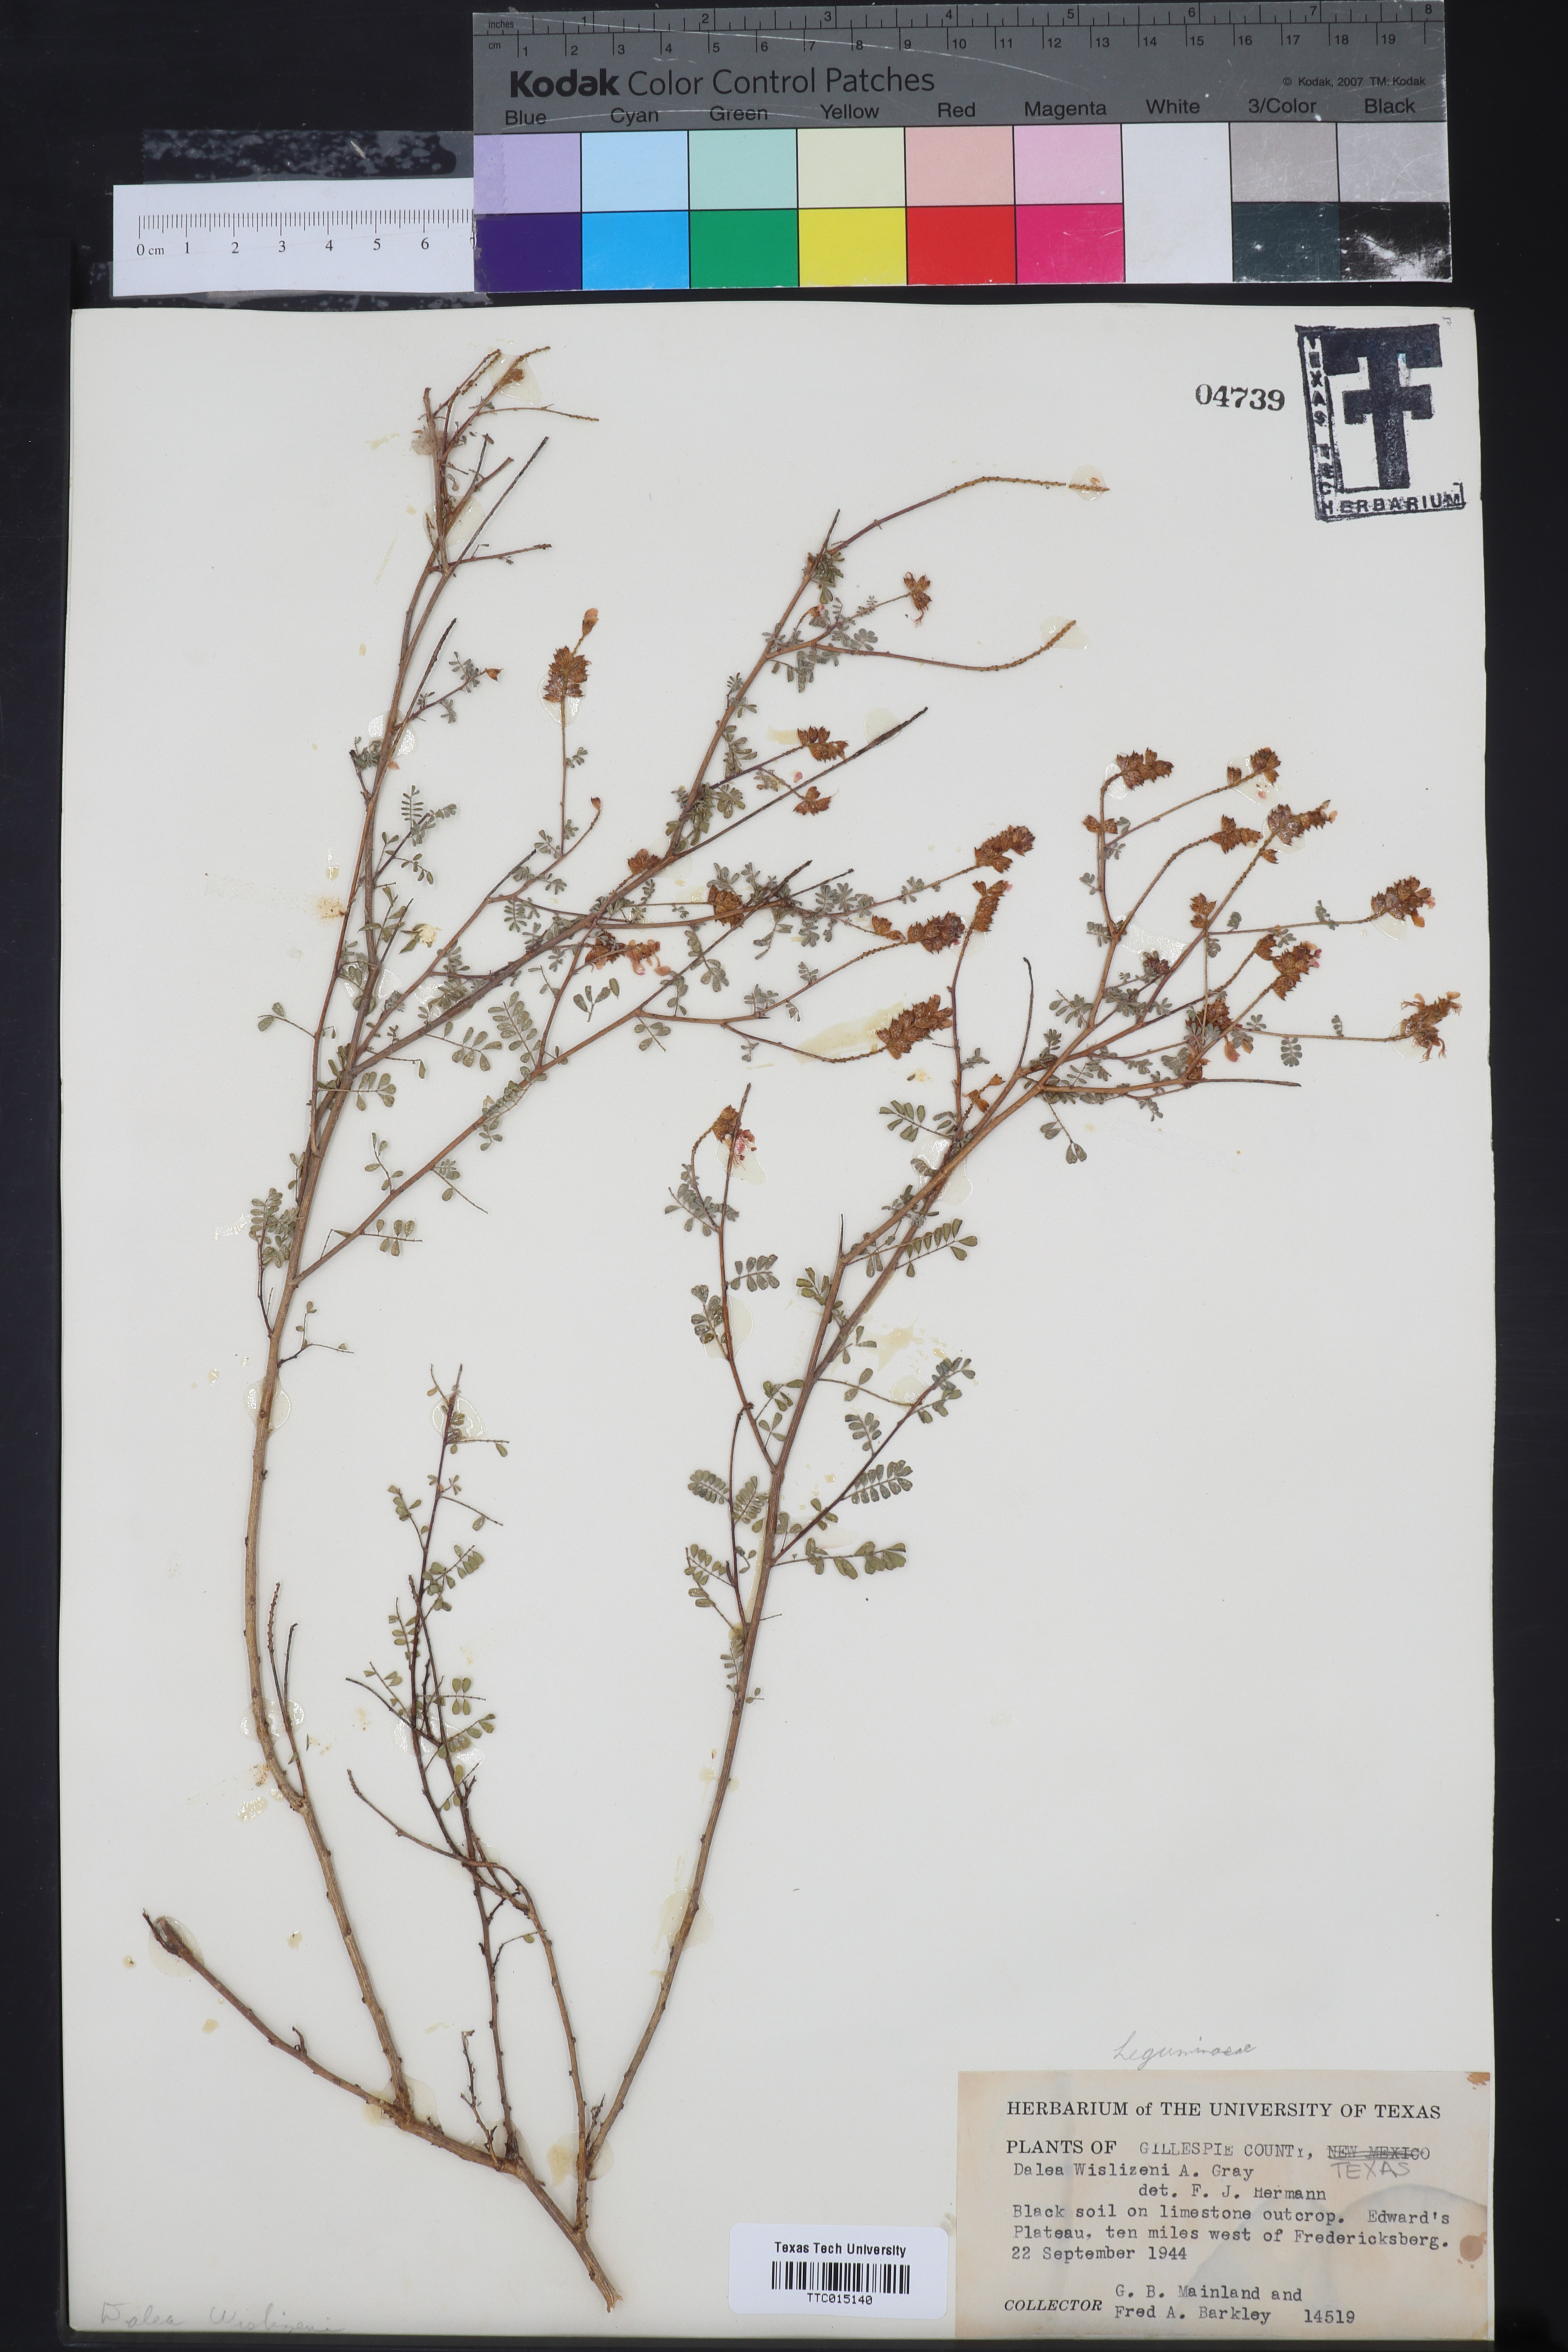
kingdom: Plantae
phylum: Tracheophyta
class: Magnoliopsida
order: Fabales
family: Fabaceae
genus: Dalea
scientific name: Dalea versicolor
